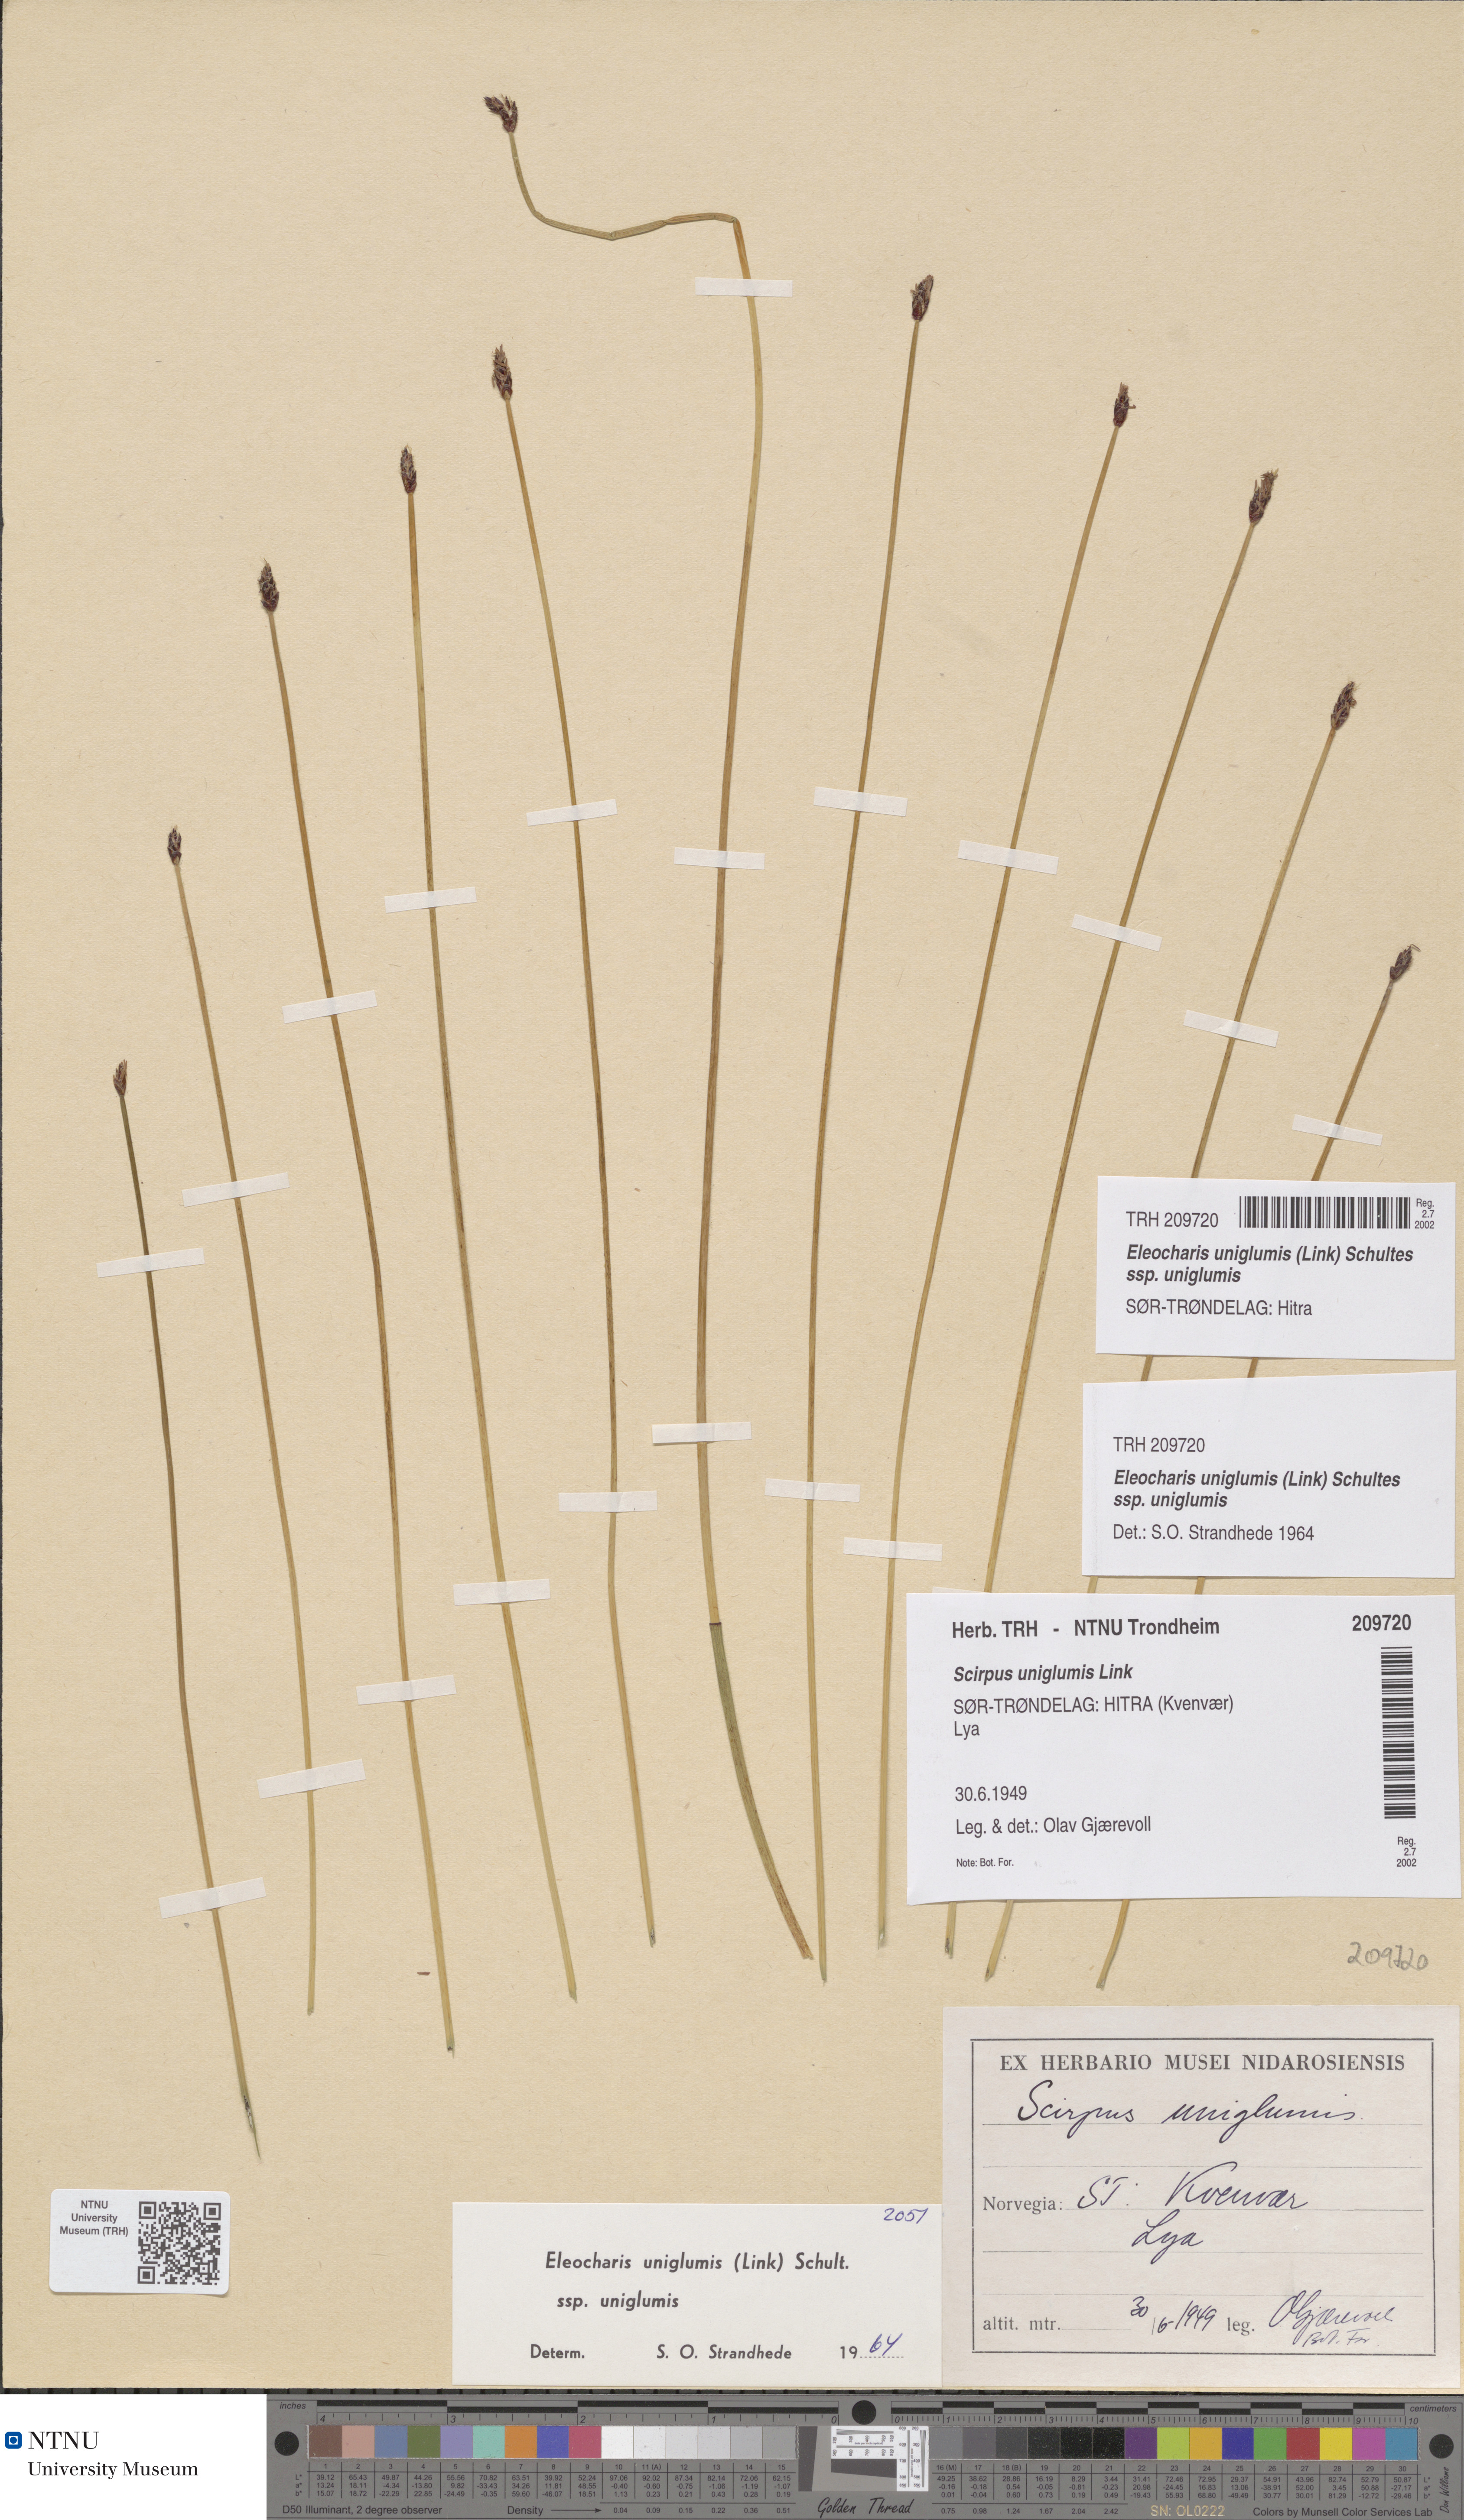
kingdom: Plantae
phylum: Tracheophyta
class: Liliopsida
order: Poales
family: Cyperaceae
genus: Eleocharis
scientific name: Eleocharis uniglumis
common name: Slender spike-rush
